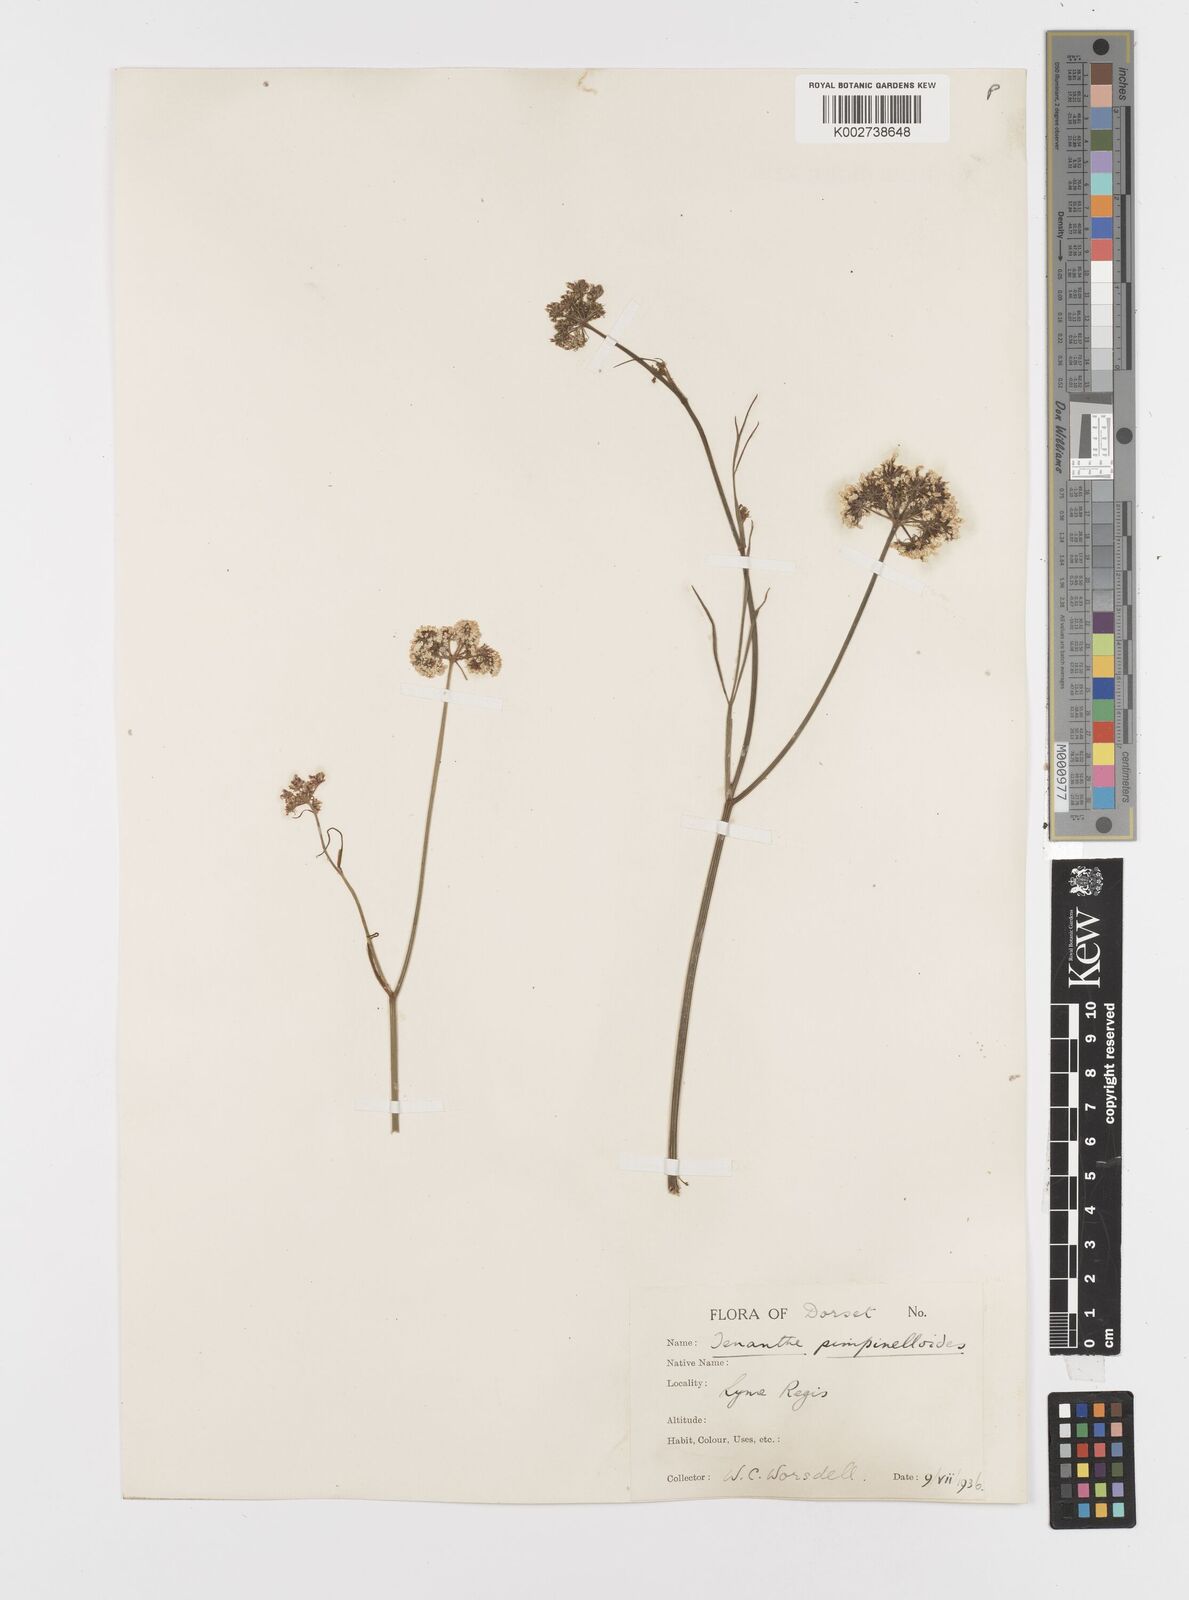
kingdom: Plantae
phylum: Tracheophyta
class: Magnoliopsida
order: Apiales
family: Apiaceae
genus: Oenanthe
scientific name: Oenanthe pimpinelloides
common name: Corky-fruited water-dropwort
